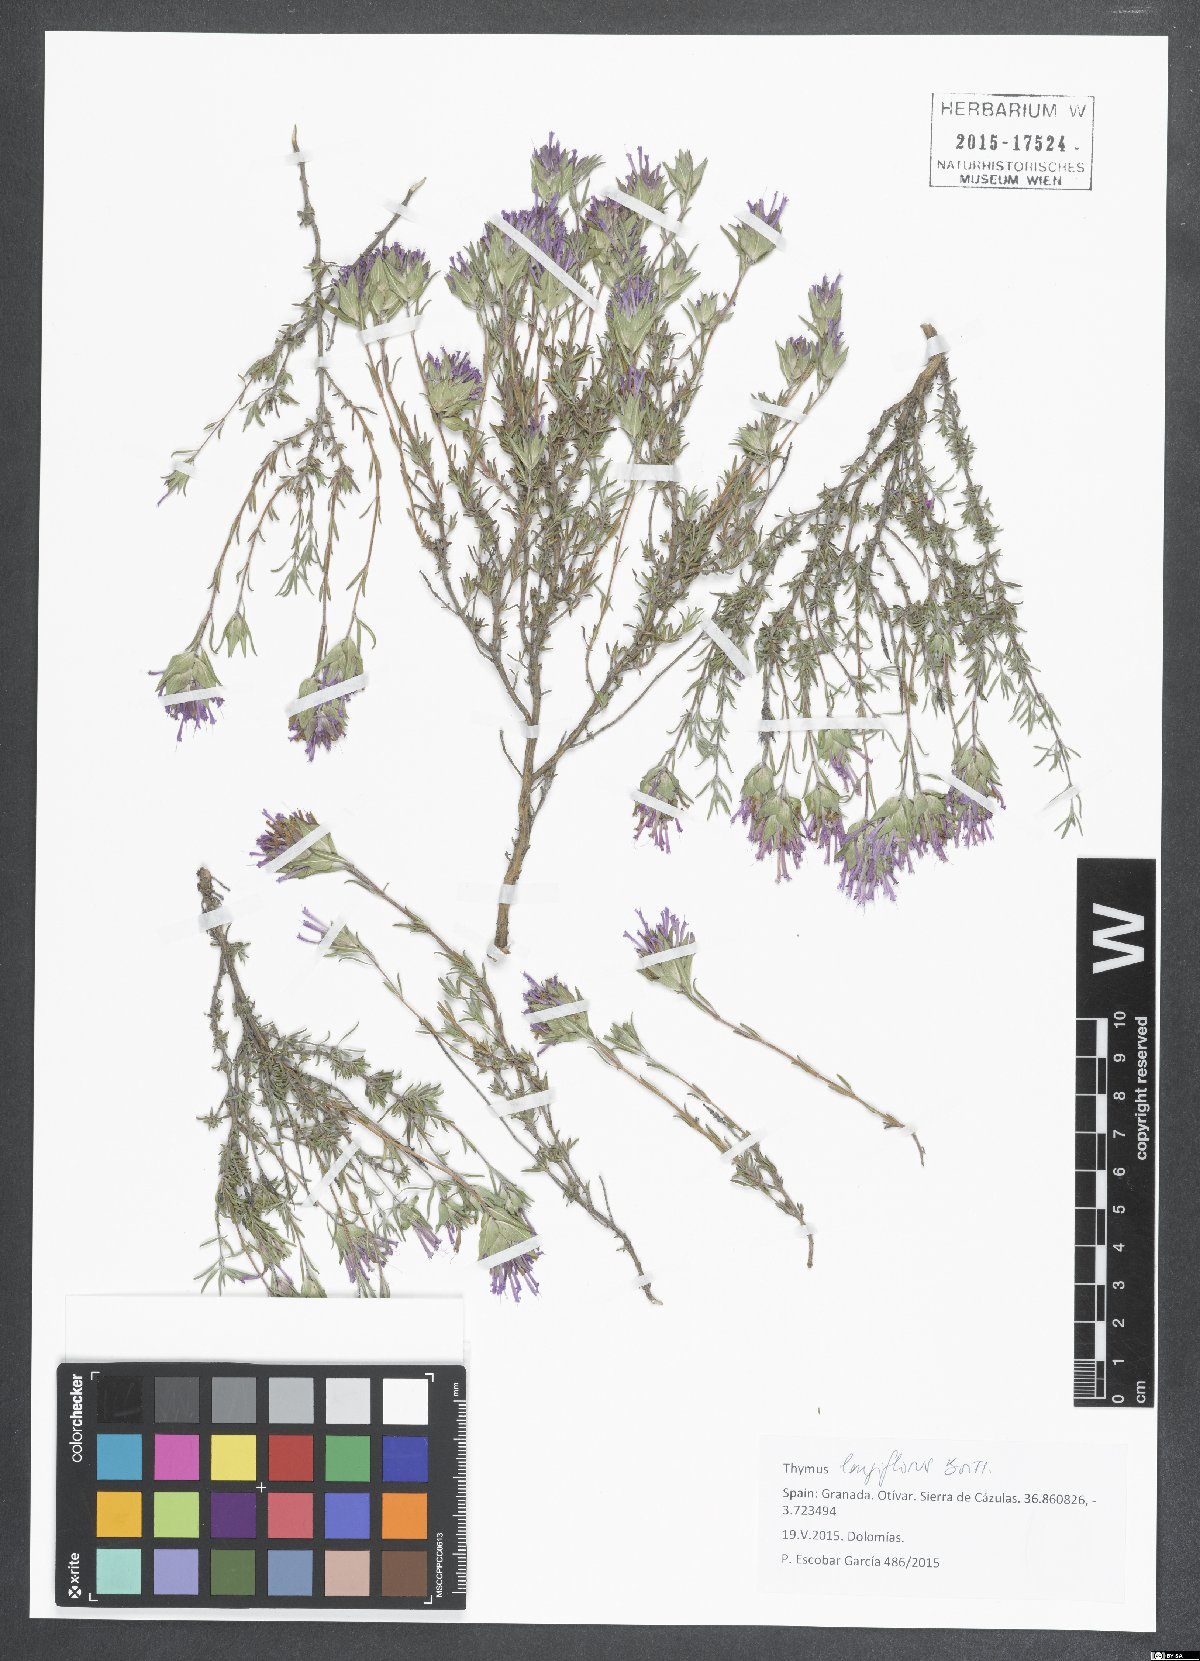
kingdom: Plantae
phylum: Tracheophyta
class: Magnoliopsida
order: Lamiales
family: Lamiaceae
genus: Thymus
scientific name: Thymus longiflorus
